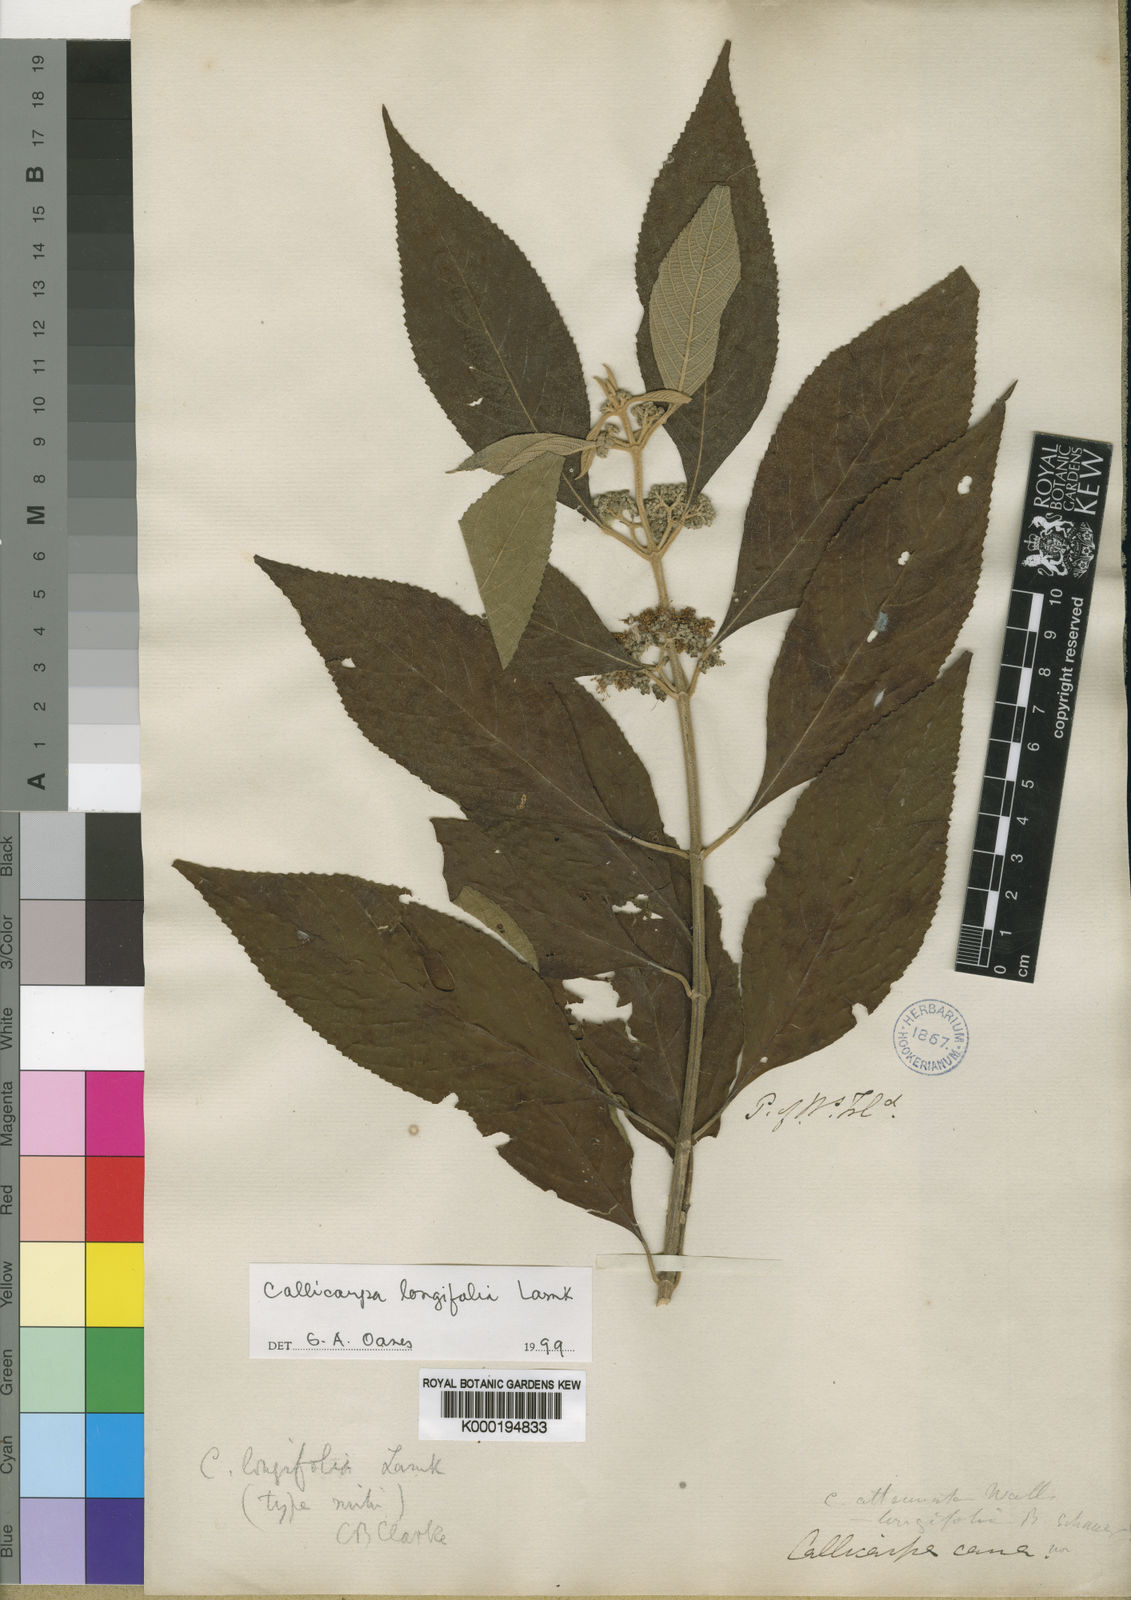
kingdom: Plantae
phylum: Tracheophyta
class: Magnoliopsida
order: Lamiales
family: Lamiaceae
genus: Callicarpa
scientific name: Callicarpa longifolia
